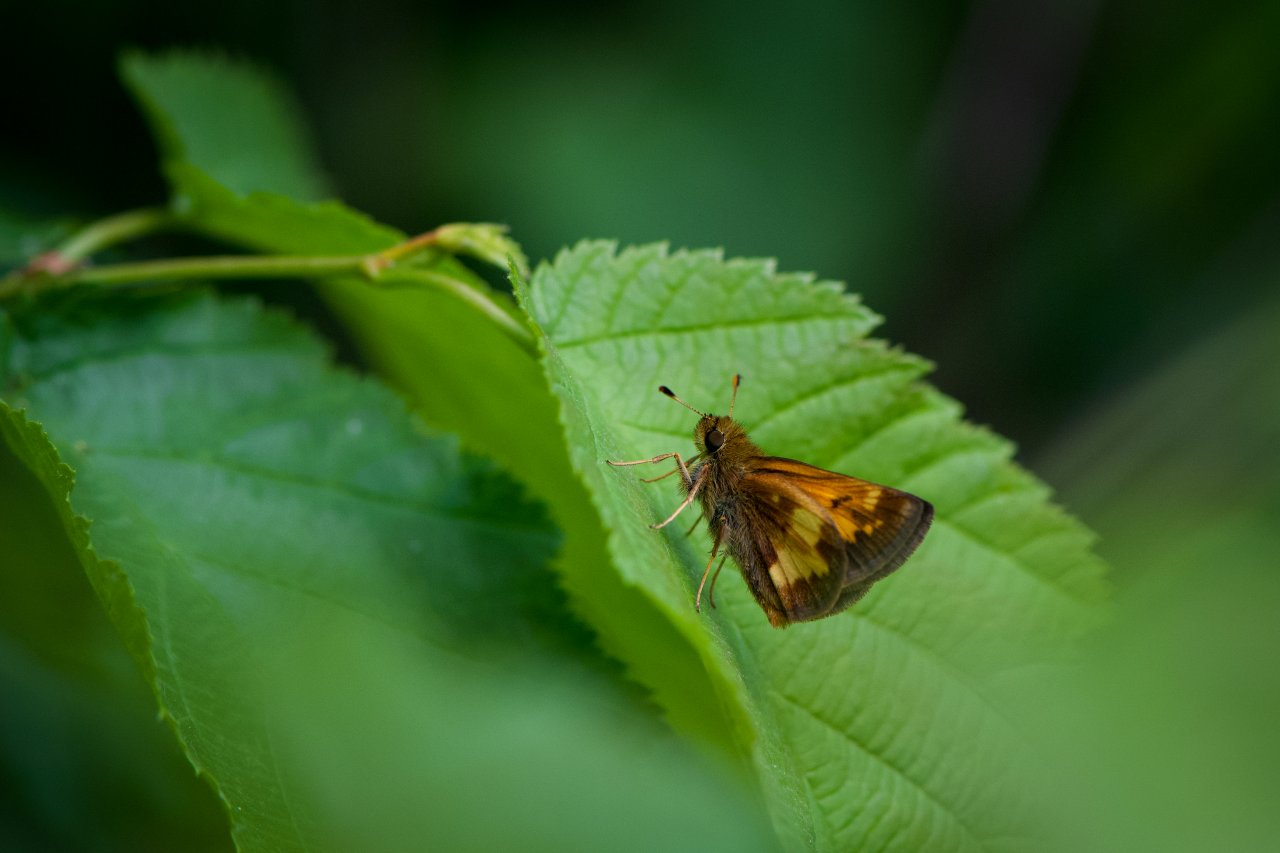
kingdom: Animalia
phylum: Arthropoda
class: Insecta
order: Lepidoptera
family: Hesperiidae
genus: Lon
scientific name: Lon hobomok
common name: Hobomok Skipper
